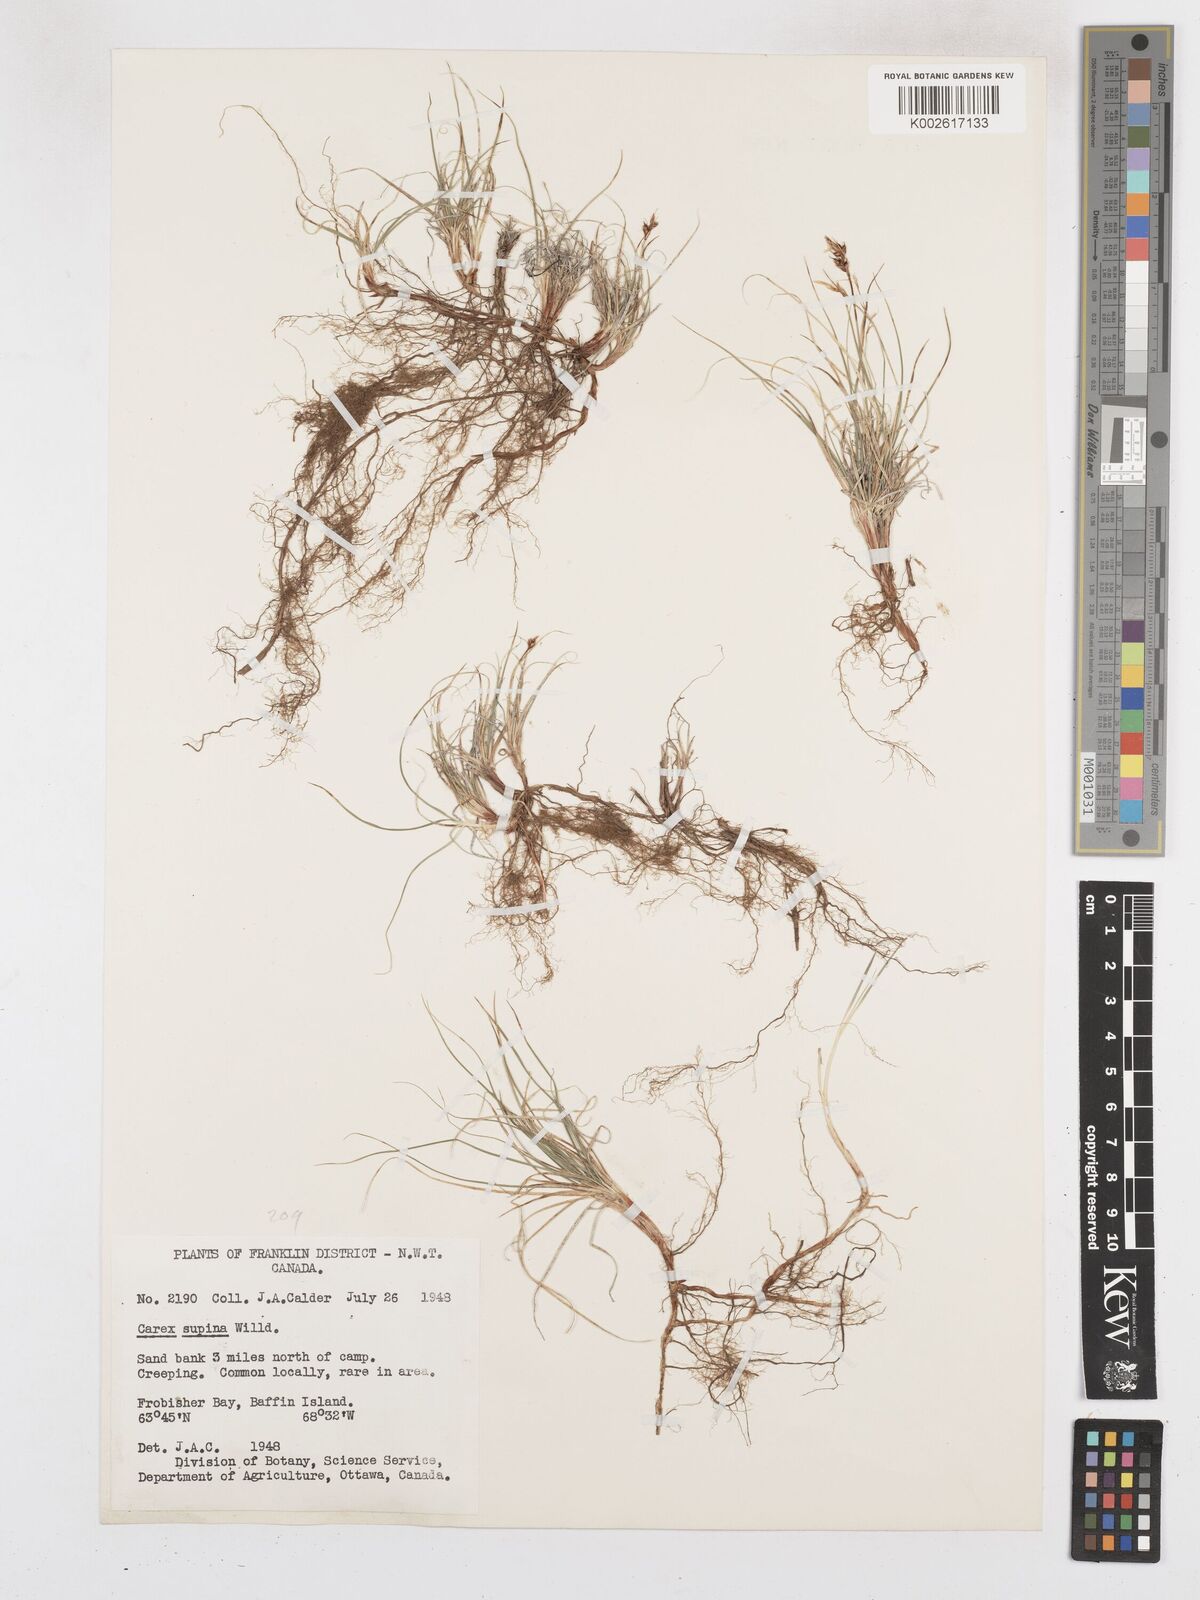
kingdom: Plantae
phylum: Tracheophyta
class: Liliopsida
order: Poales
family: Cyperaceae
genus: Carex
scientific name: Carex supina
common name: Lying-back sedge
